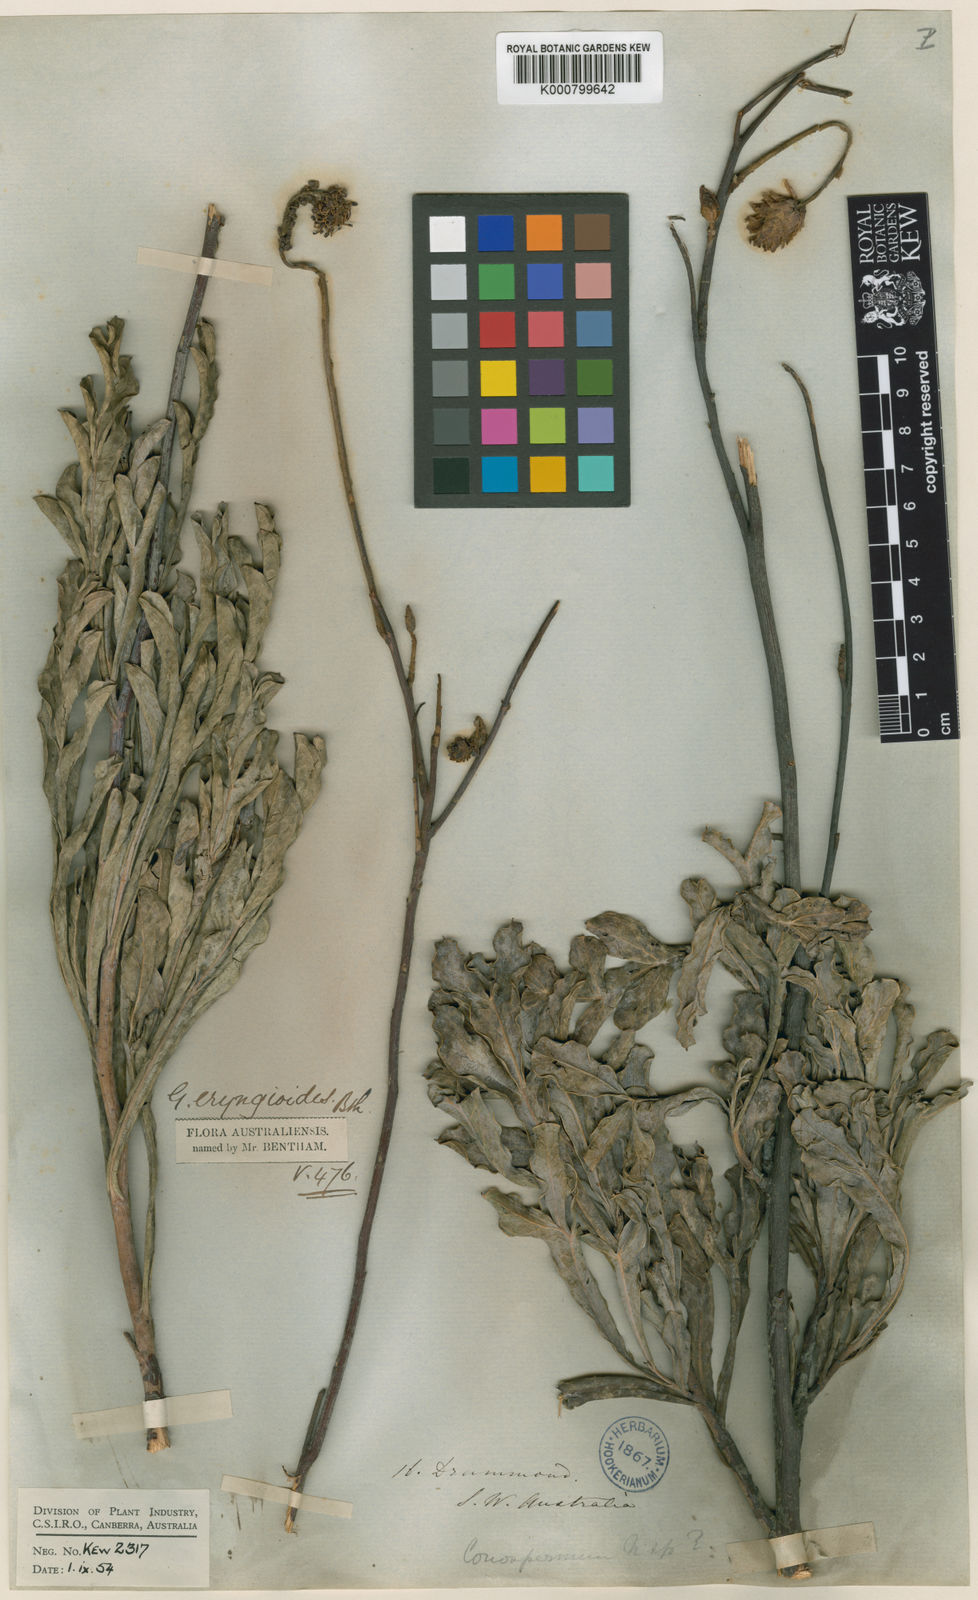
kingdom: Plantae
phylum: Tracheophyta
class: Magnoliopsida
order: Proteales
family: Proteaceae
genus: Grevillea
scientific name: Grevillea eryngioides
